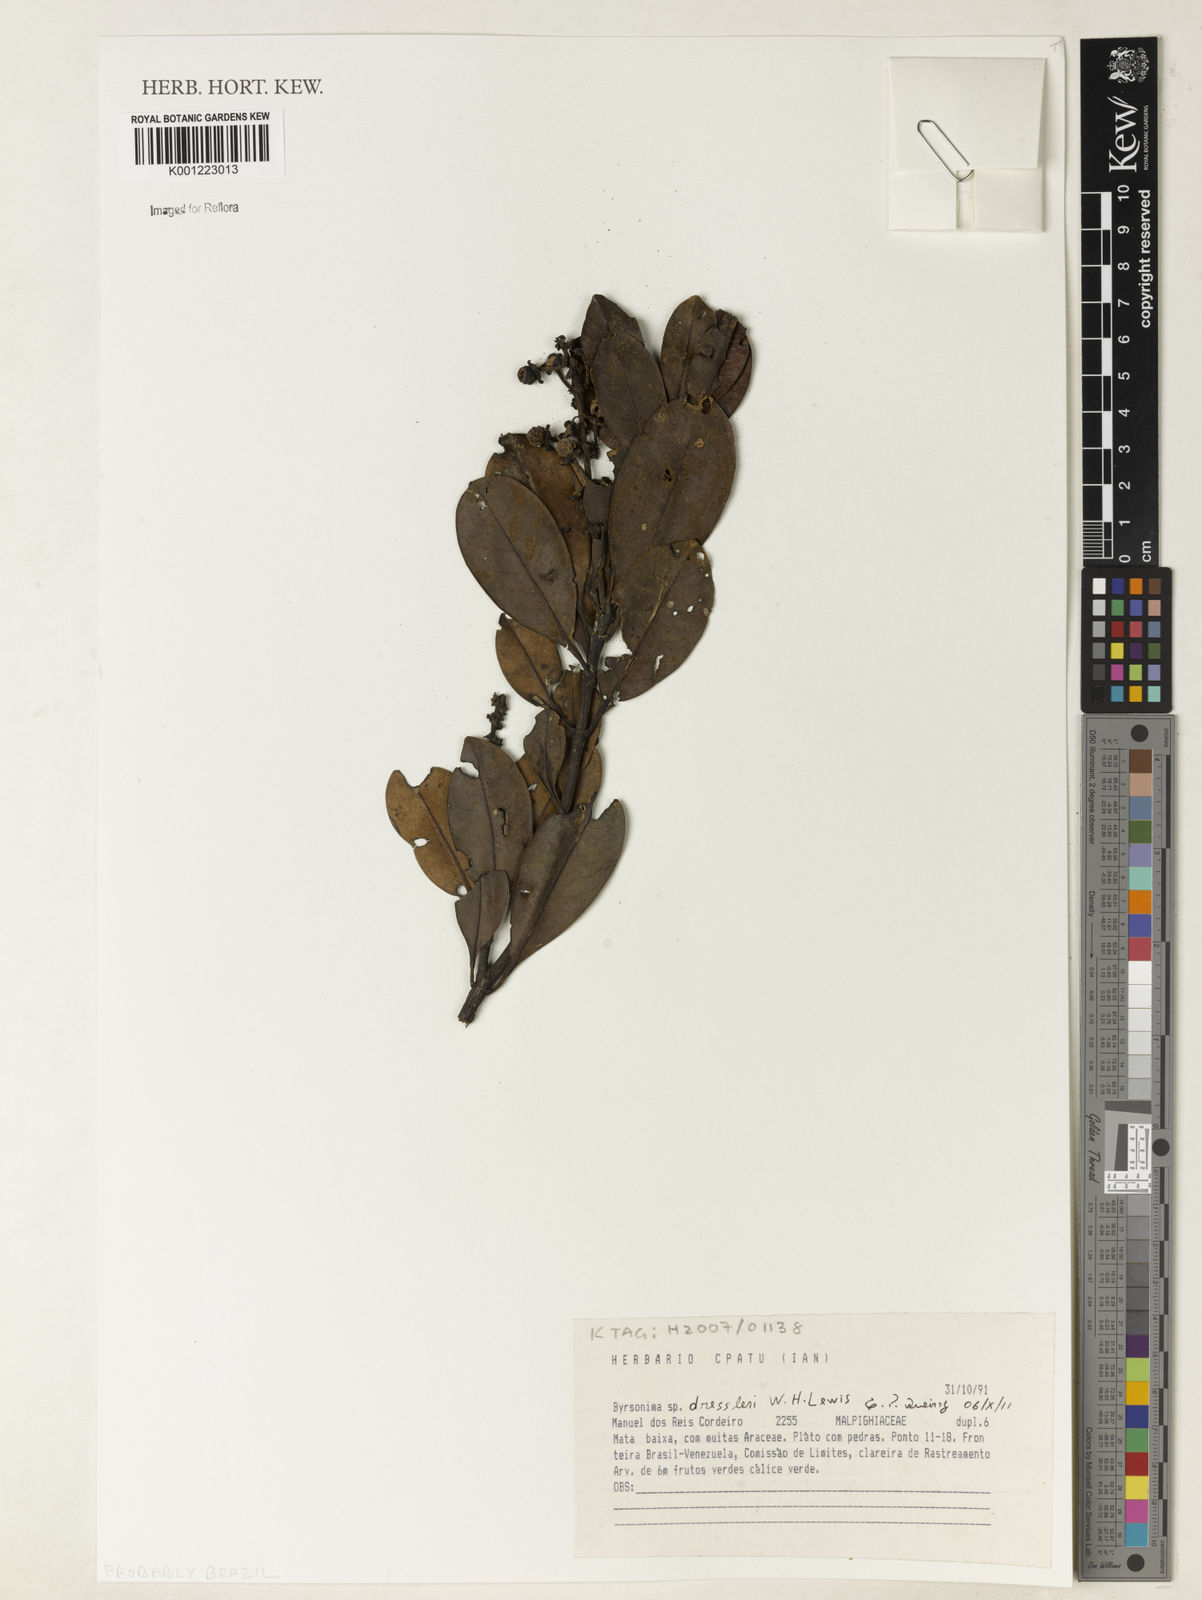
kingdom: Plantae
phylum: Tracheophyta
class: Magnoliopsida
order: Malpighiales
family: Malpighiaceae
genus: Byrsonima
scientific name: Byrsonima nemoralis
